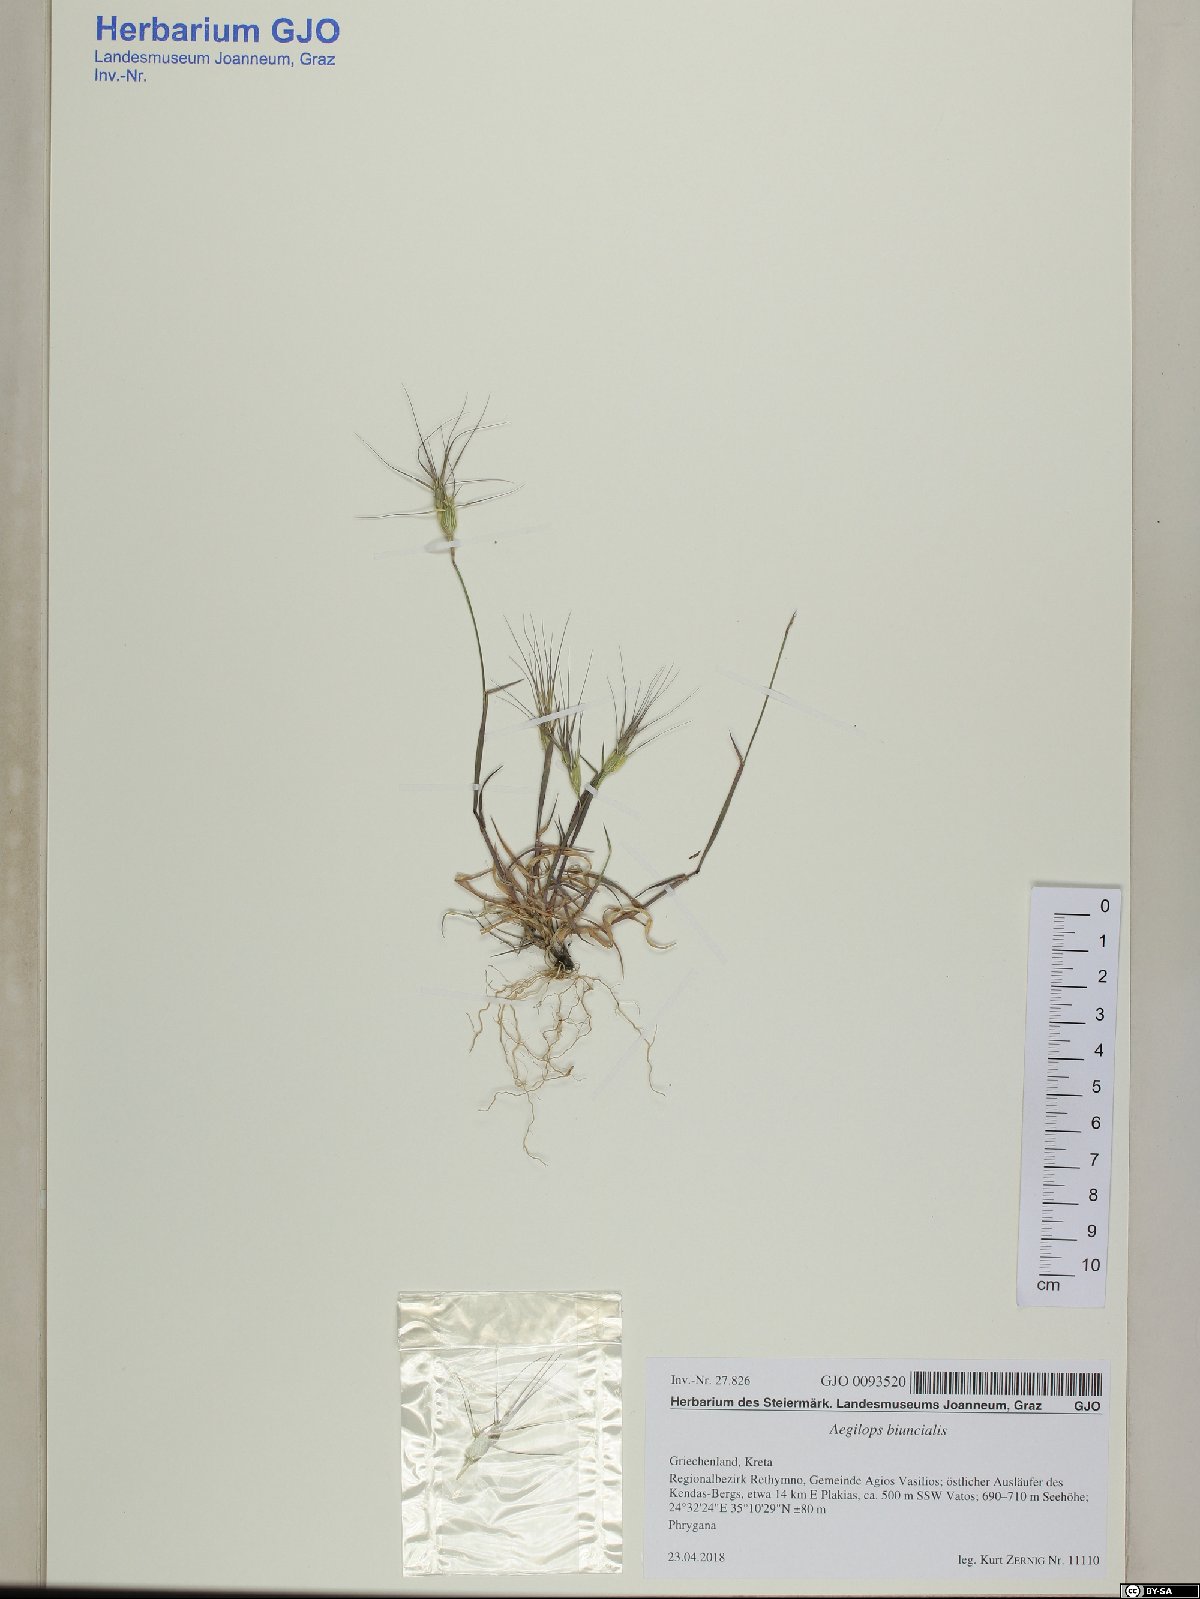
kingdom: Plantae
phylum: Tracheophyta
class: Liliopsida
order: Poales
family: Poaceae
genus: Aegilops
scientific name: Aegilops biuncialis
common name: Mediterranean aegilops
